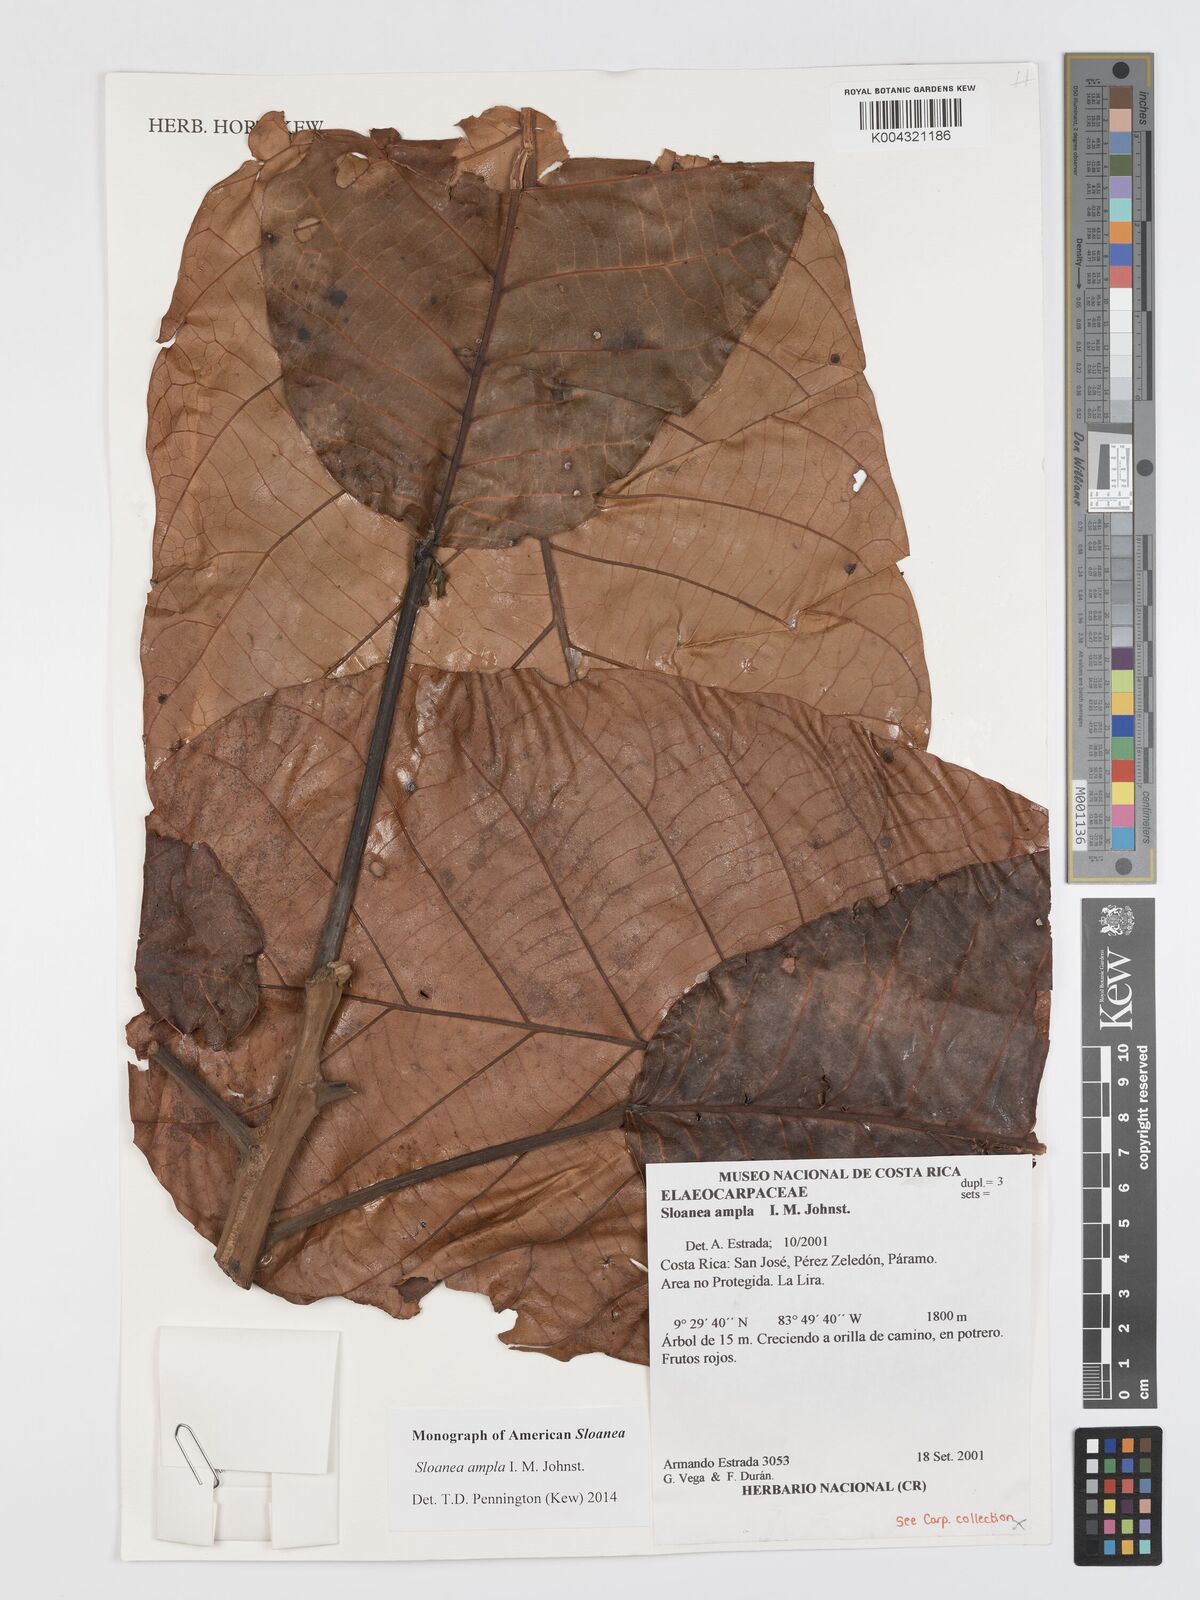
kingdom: Plantae
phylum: Tracheophyta
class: Magnoliopsida
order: Oxalidales
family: Elaeocarpaceae
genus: Sloanea
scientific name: Sloanea ampla
